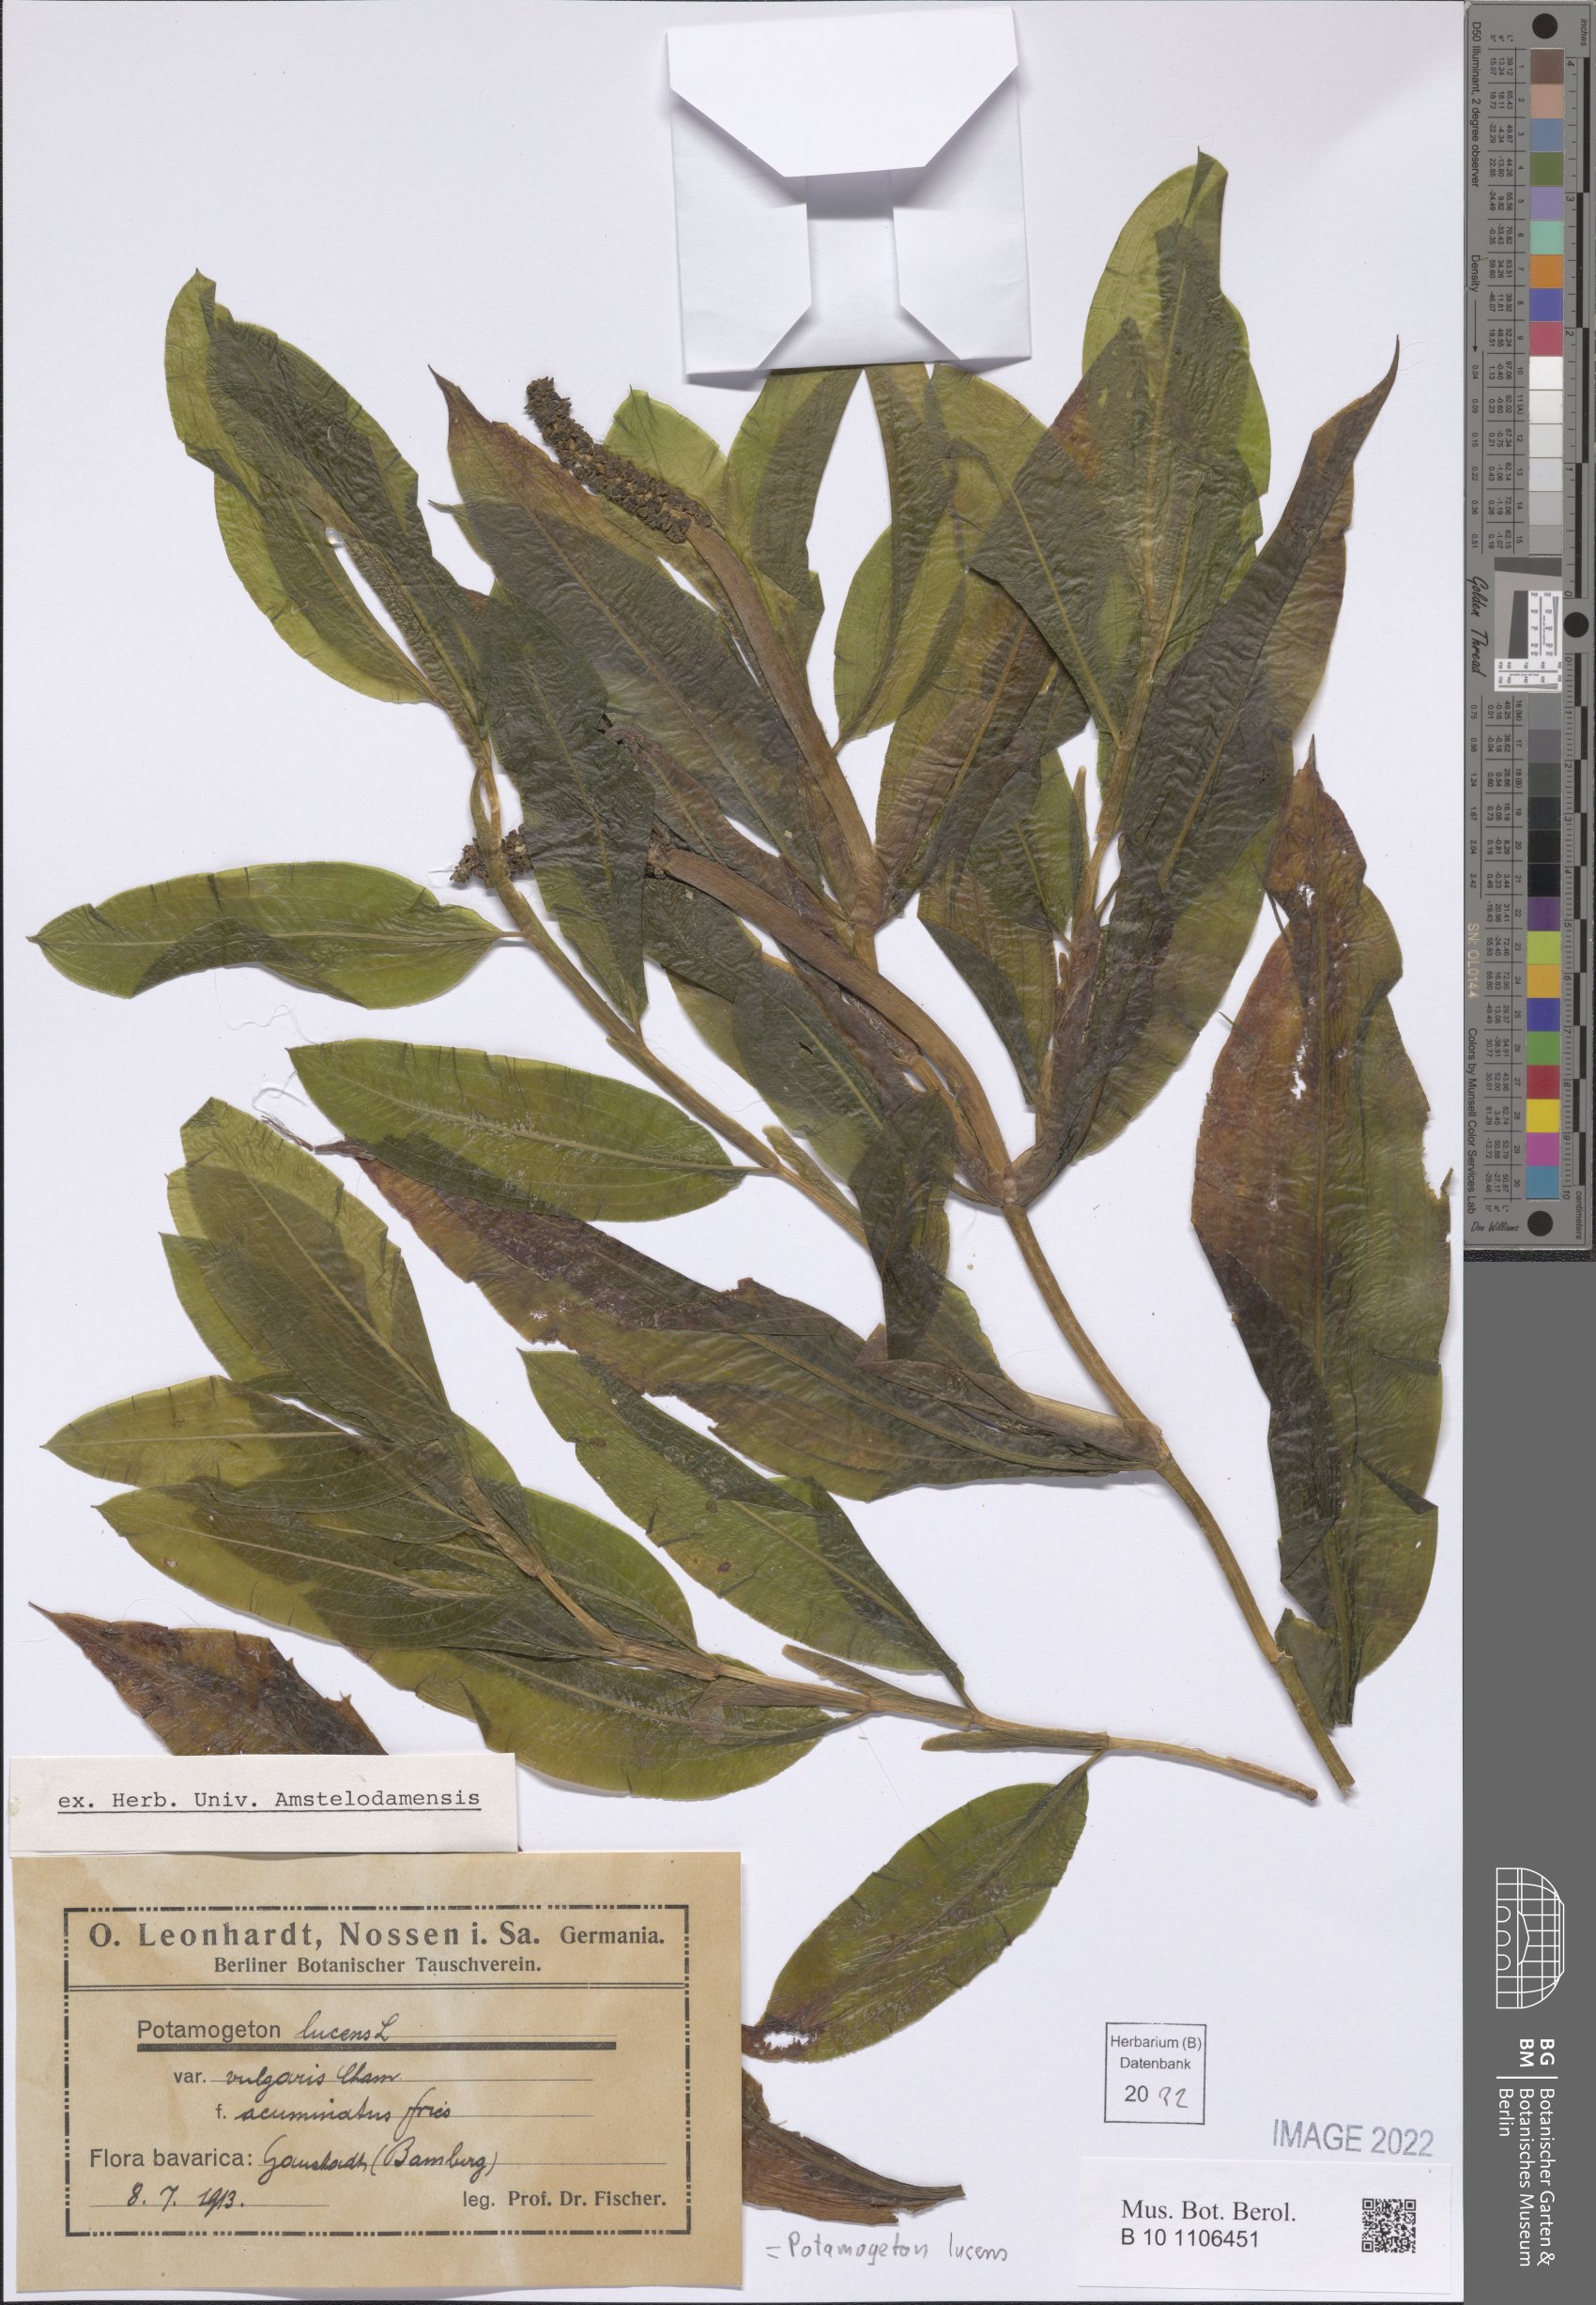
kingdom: Plantae
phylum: Tracheophyta
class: Liliopsida
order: Alismatales
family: Potamogetonaceae
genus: Potamogeton
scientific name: Potamogeton lucens
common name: Shining pondweed
